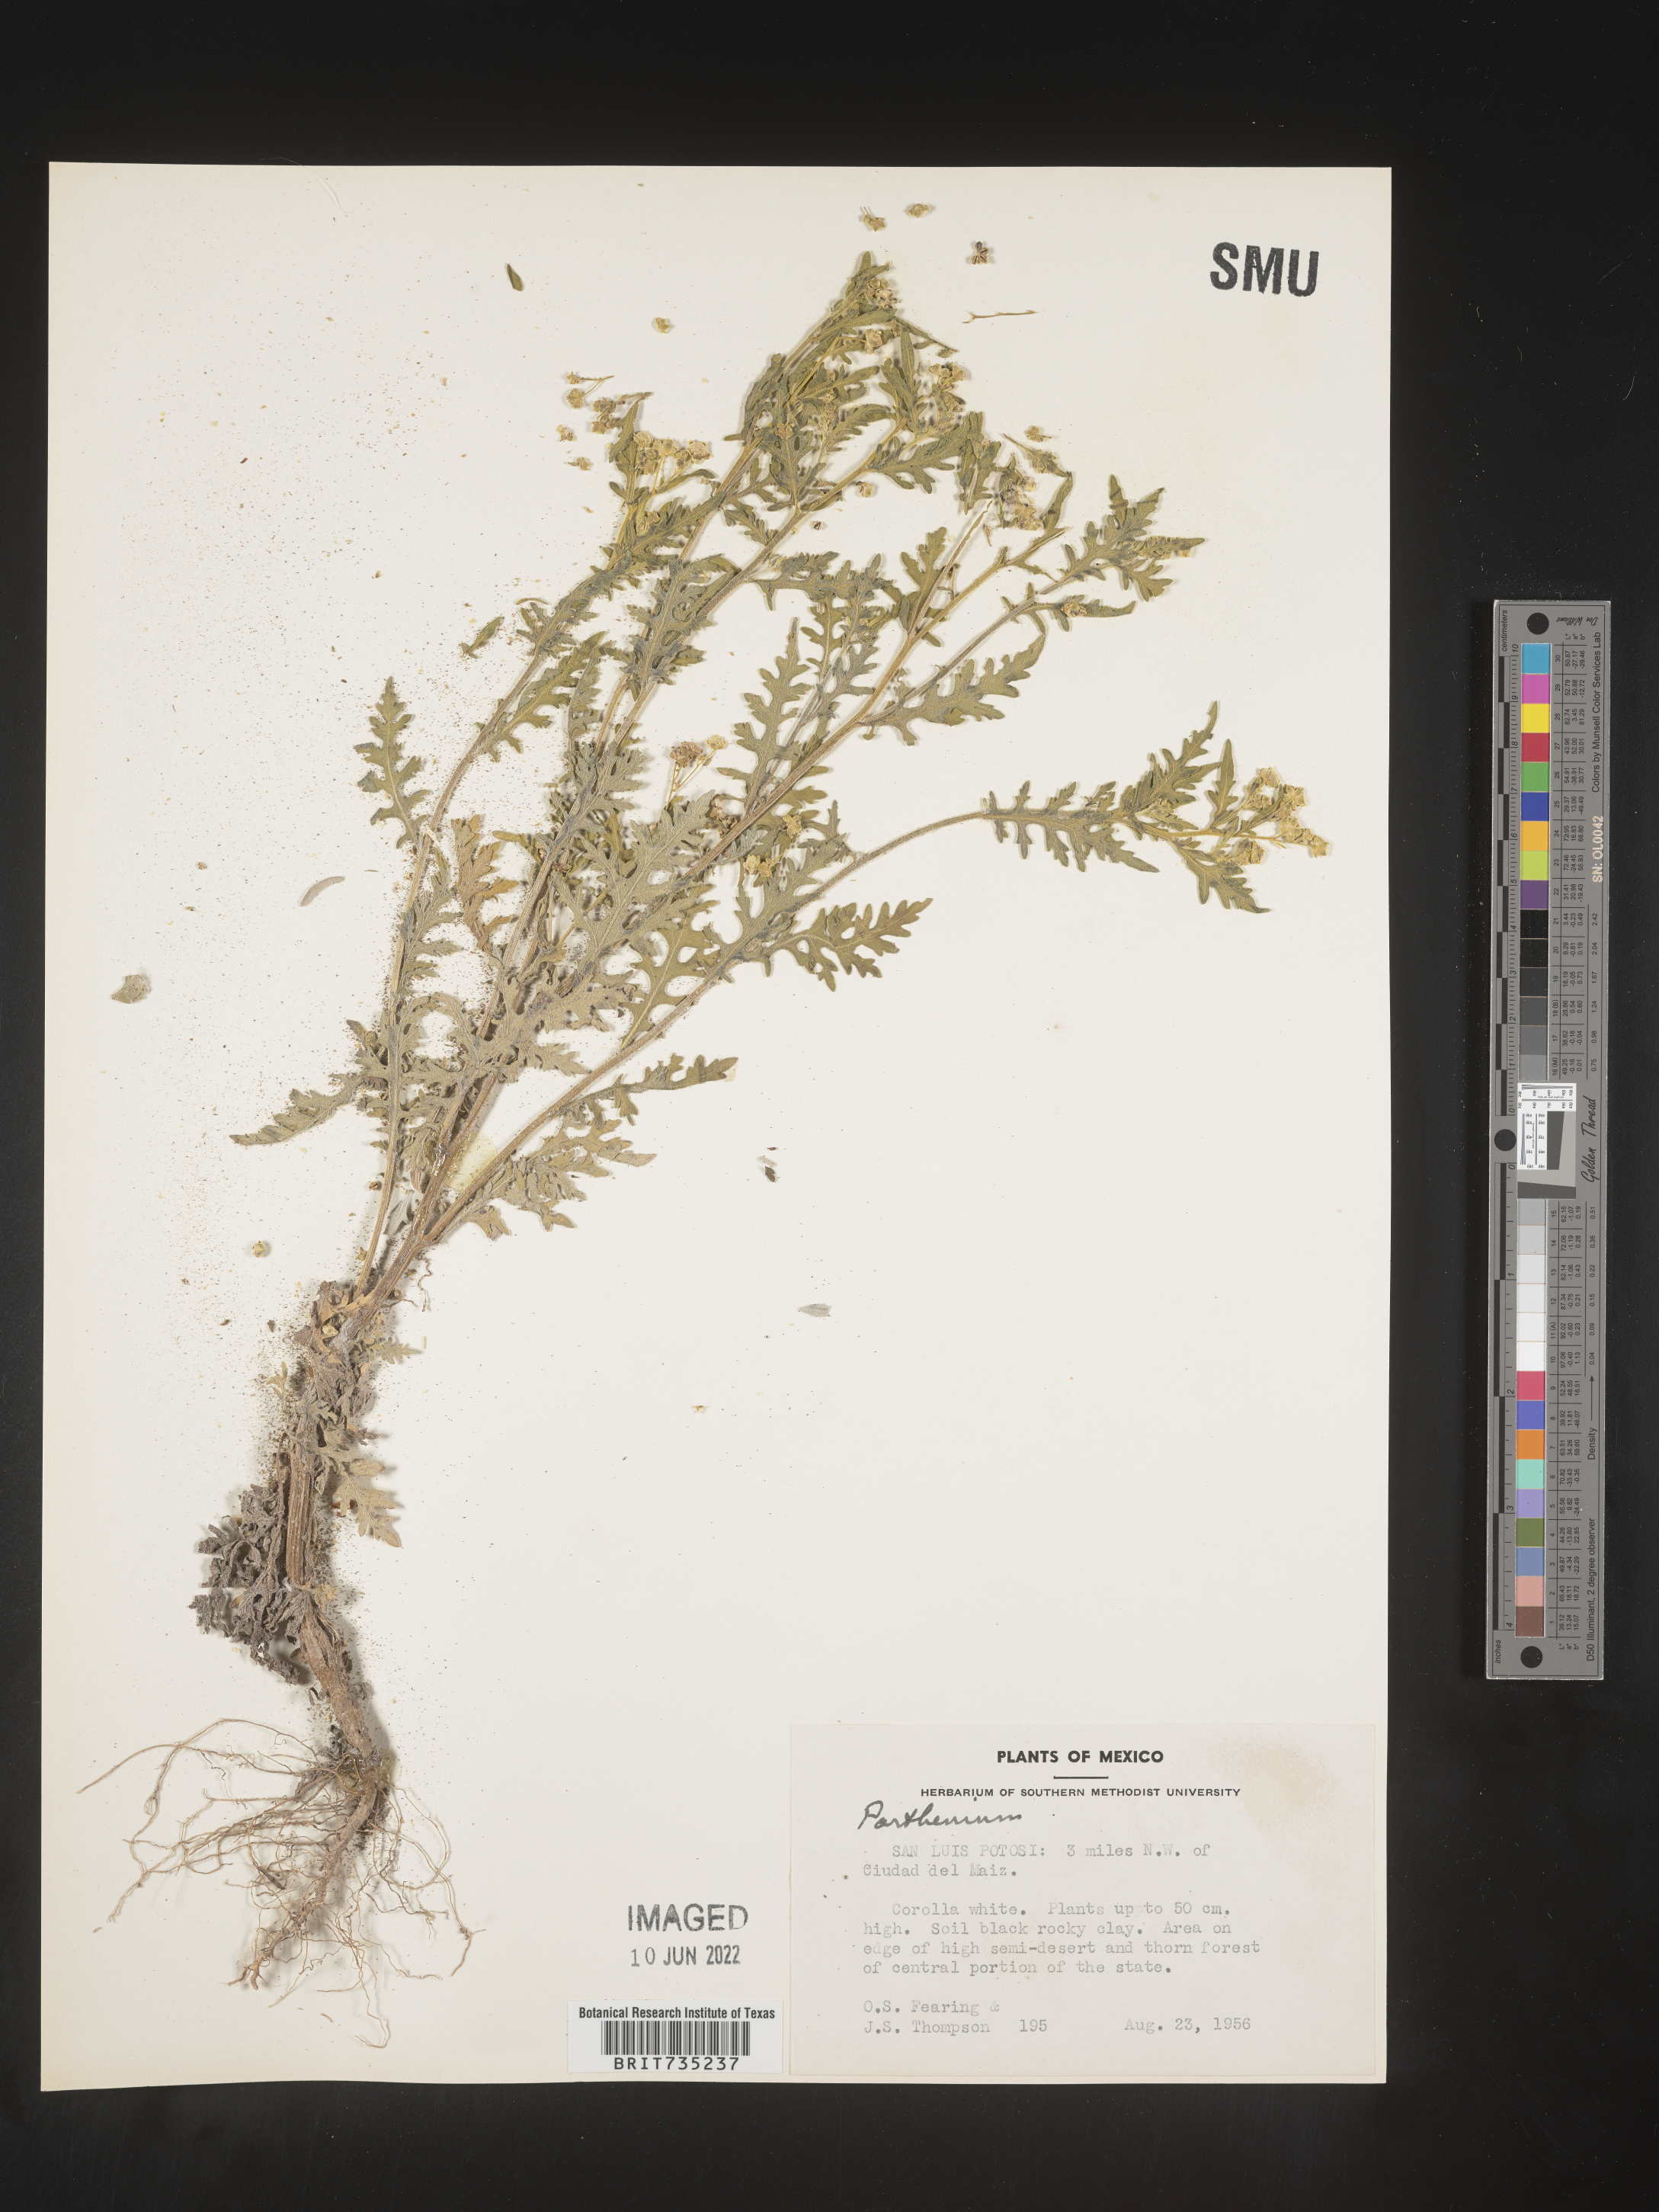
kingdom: Plantae
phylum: Tracheophyta
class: Magnoliopsida
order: Asterales
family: Asteraceae
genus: Parthenium
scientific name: Parthenium
